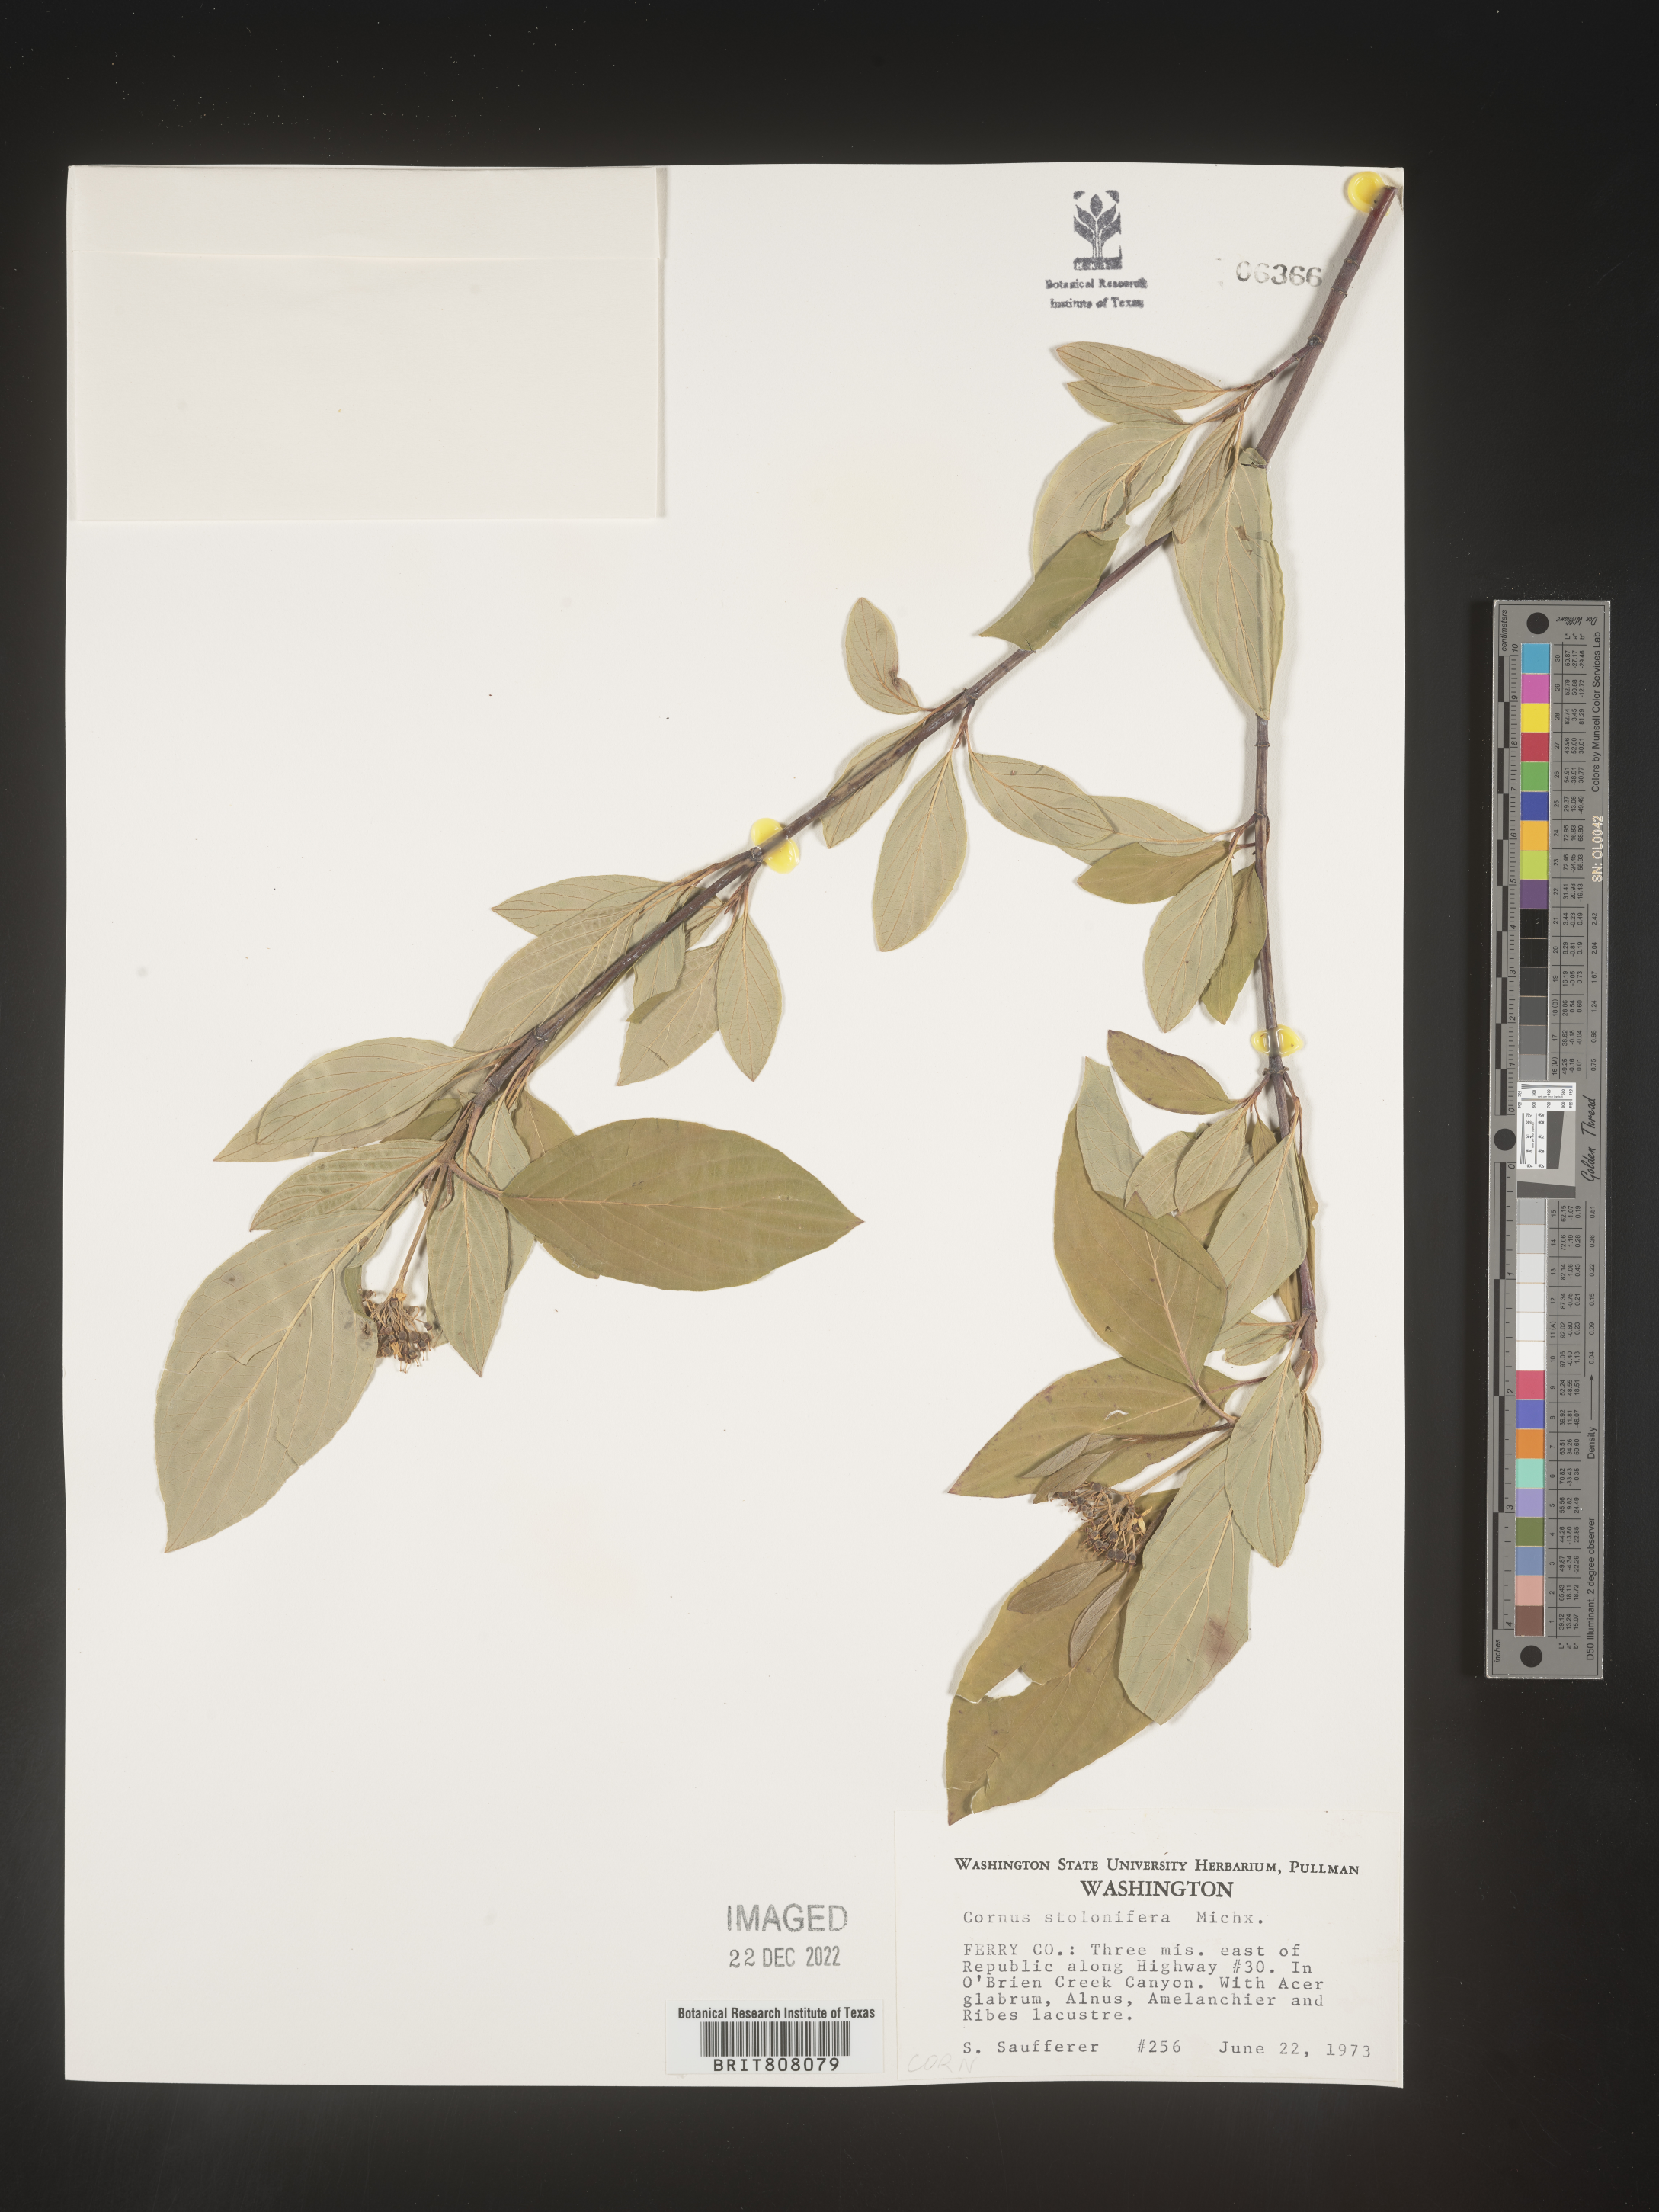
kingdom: Plantae
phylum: Tracheophyta
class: Magnoliopsida
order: Cornales
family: Cornaceae
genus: Cornus
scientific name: Cornus sericea
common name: Red-osier dogwood
